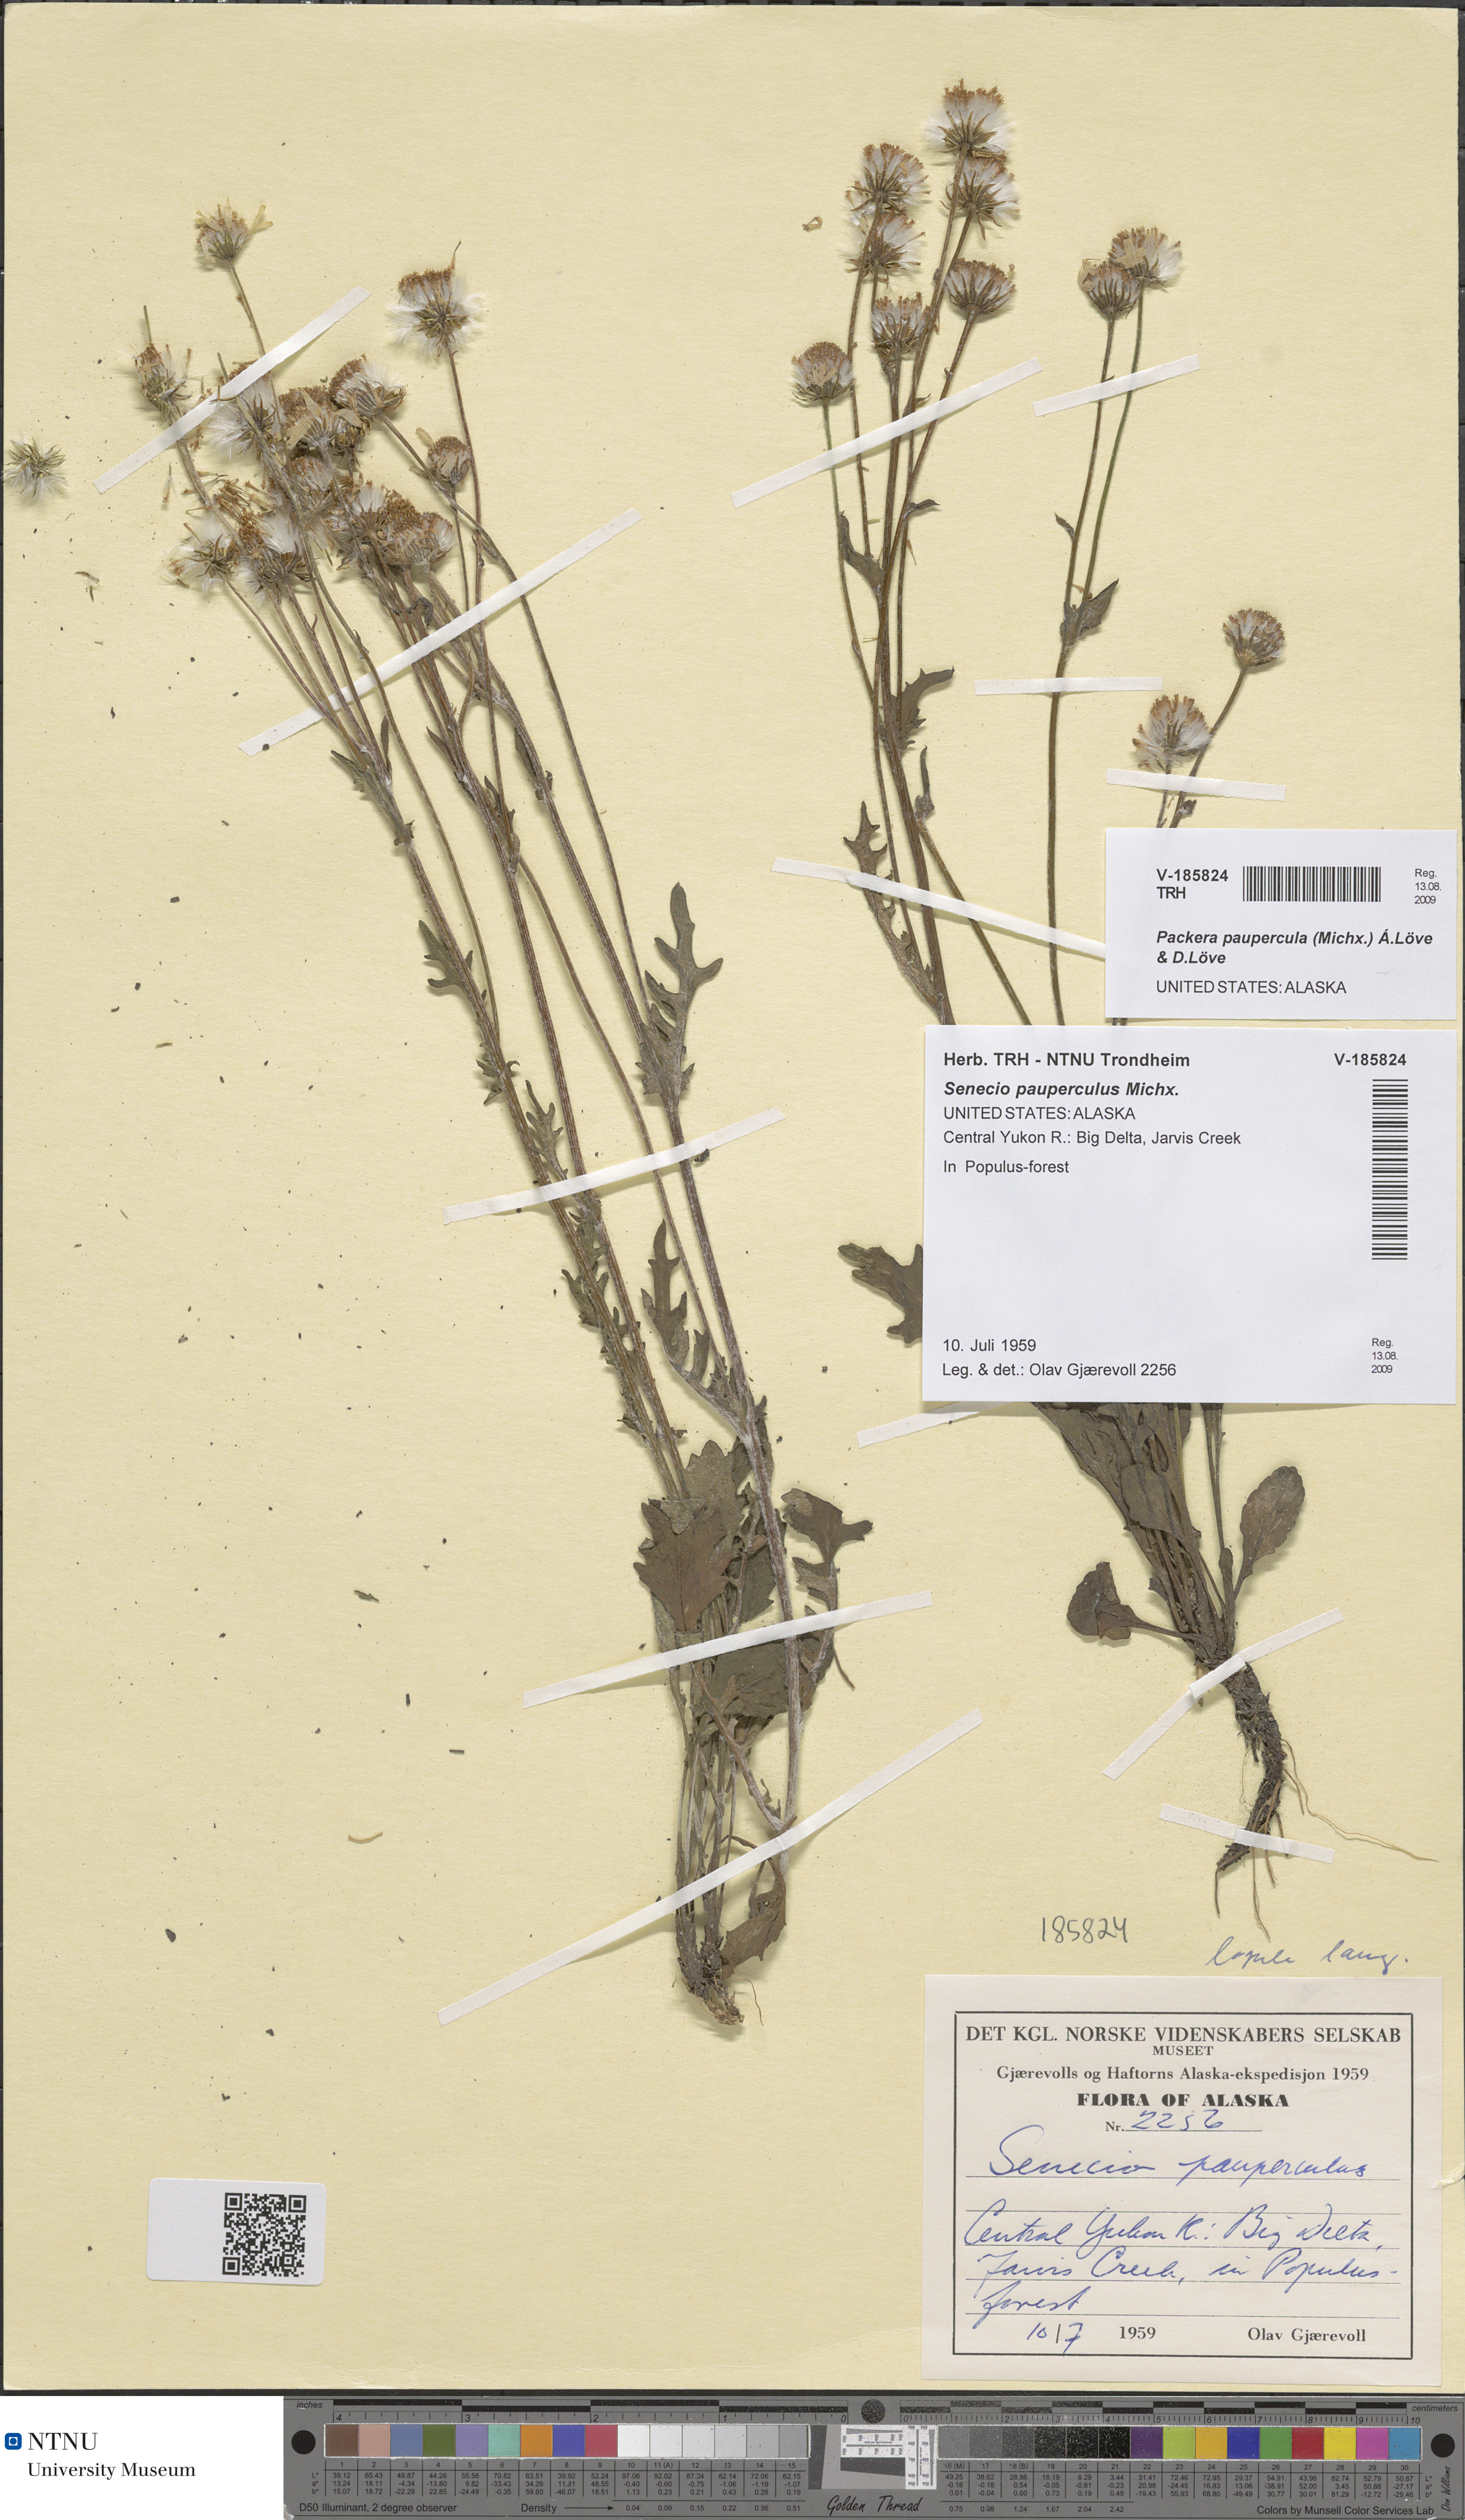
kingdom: Plantae
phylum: Tracheophyta
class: Magnoliopsida
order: Asterales
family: Asteraceae
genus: Packera
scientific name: Packera paupercula
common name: Balsam groundsel
